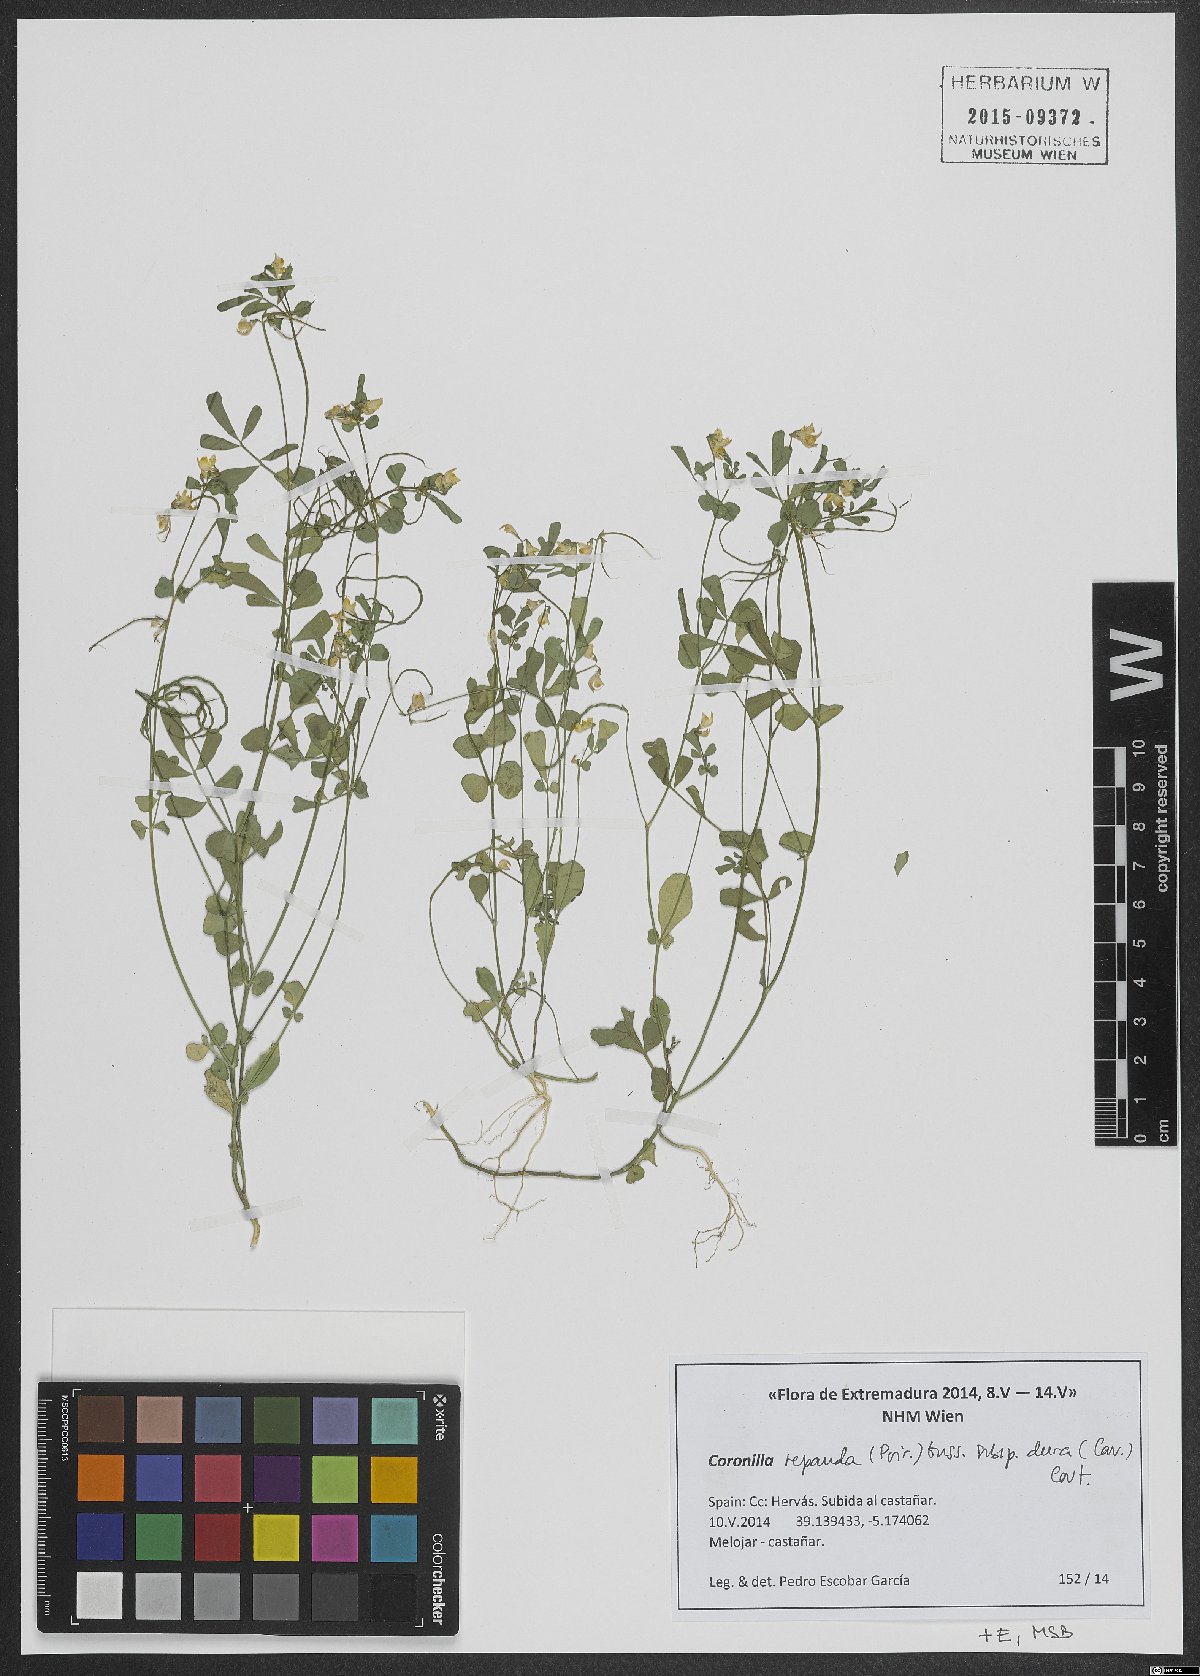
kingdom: Plantae
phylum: Tracheophyta
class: Magnoliopsida
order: Fabales
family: Fabaceae
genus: Coronilla
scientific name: Coronilla dura
